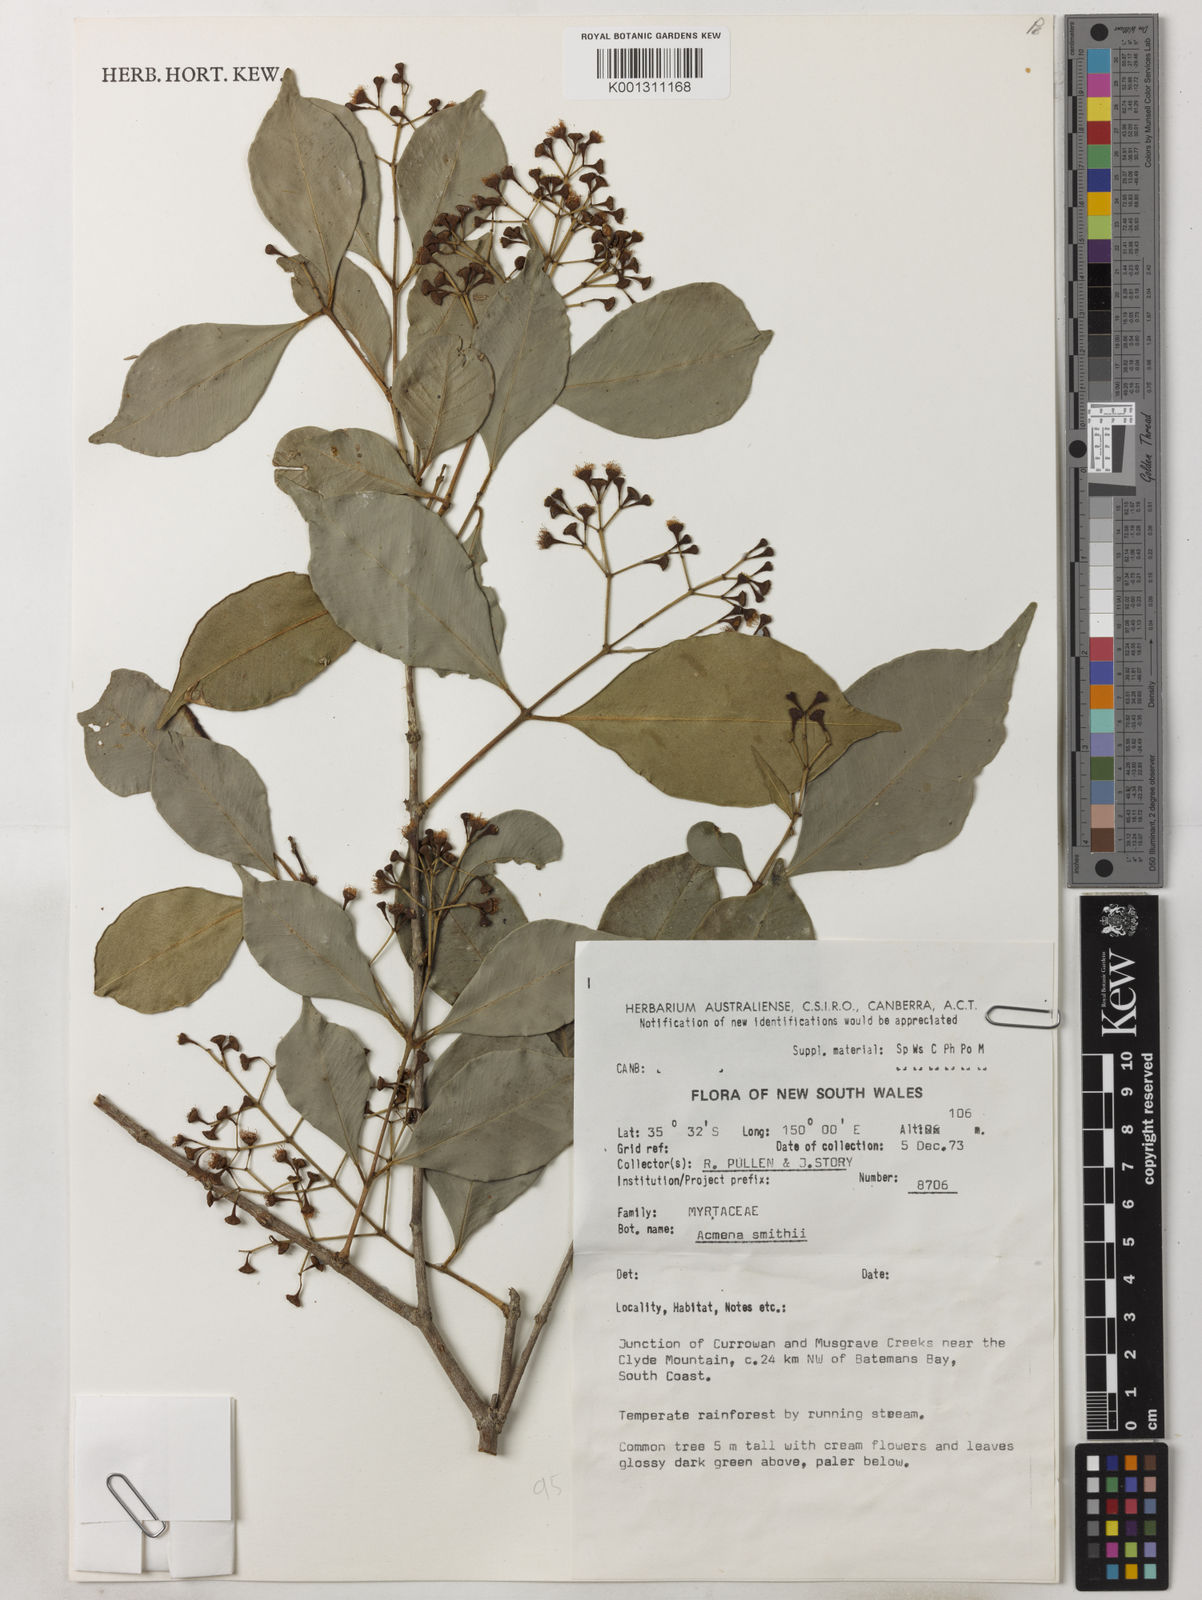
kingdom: Plantae
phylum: Tracheophyta
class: Magnoliopsida
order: Myrtales
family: Myrtaceae
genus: Syzygium
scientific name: Syzygium smithii
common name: Lilly-pilly
